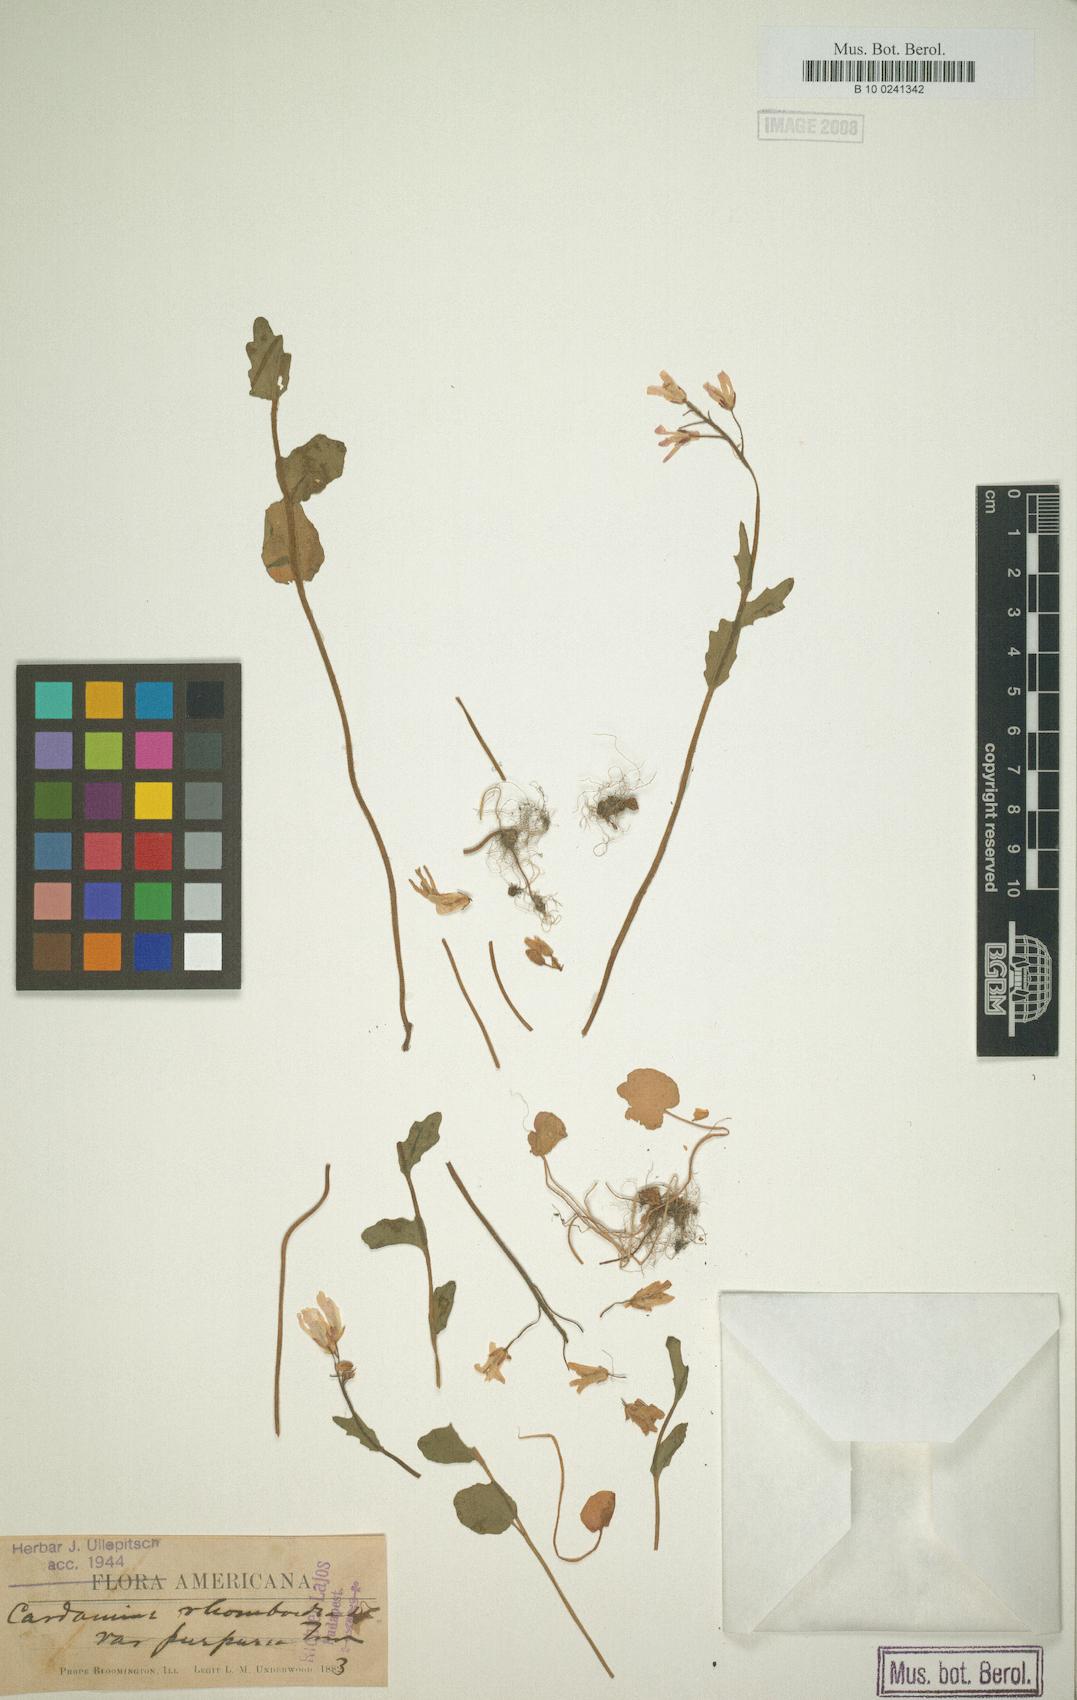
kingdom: Plantae
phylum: Tracheophyta
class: Magnoliopsida
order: Brassicales
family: Brassicaceae
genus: Cardamine
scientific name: Cardamine bulbosa
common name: Spring cress
